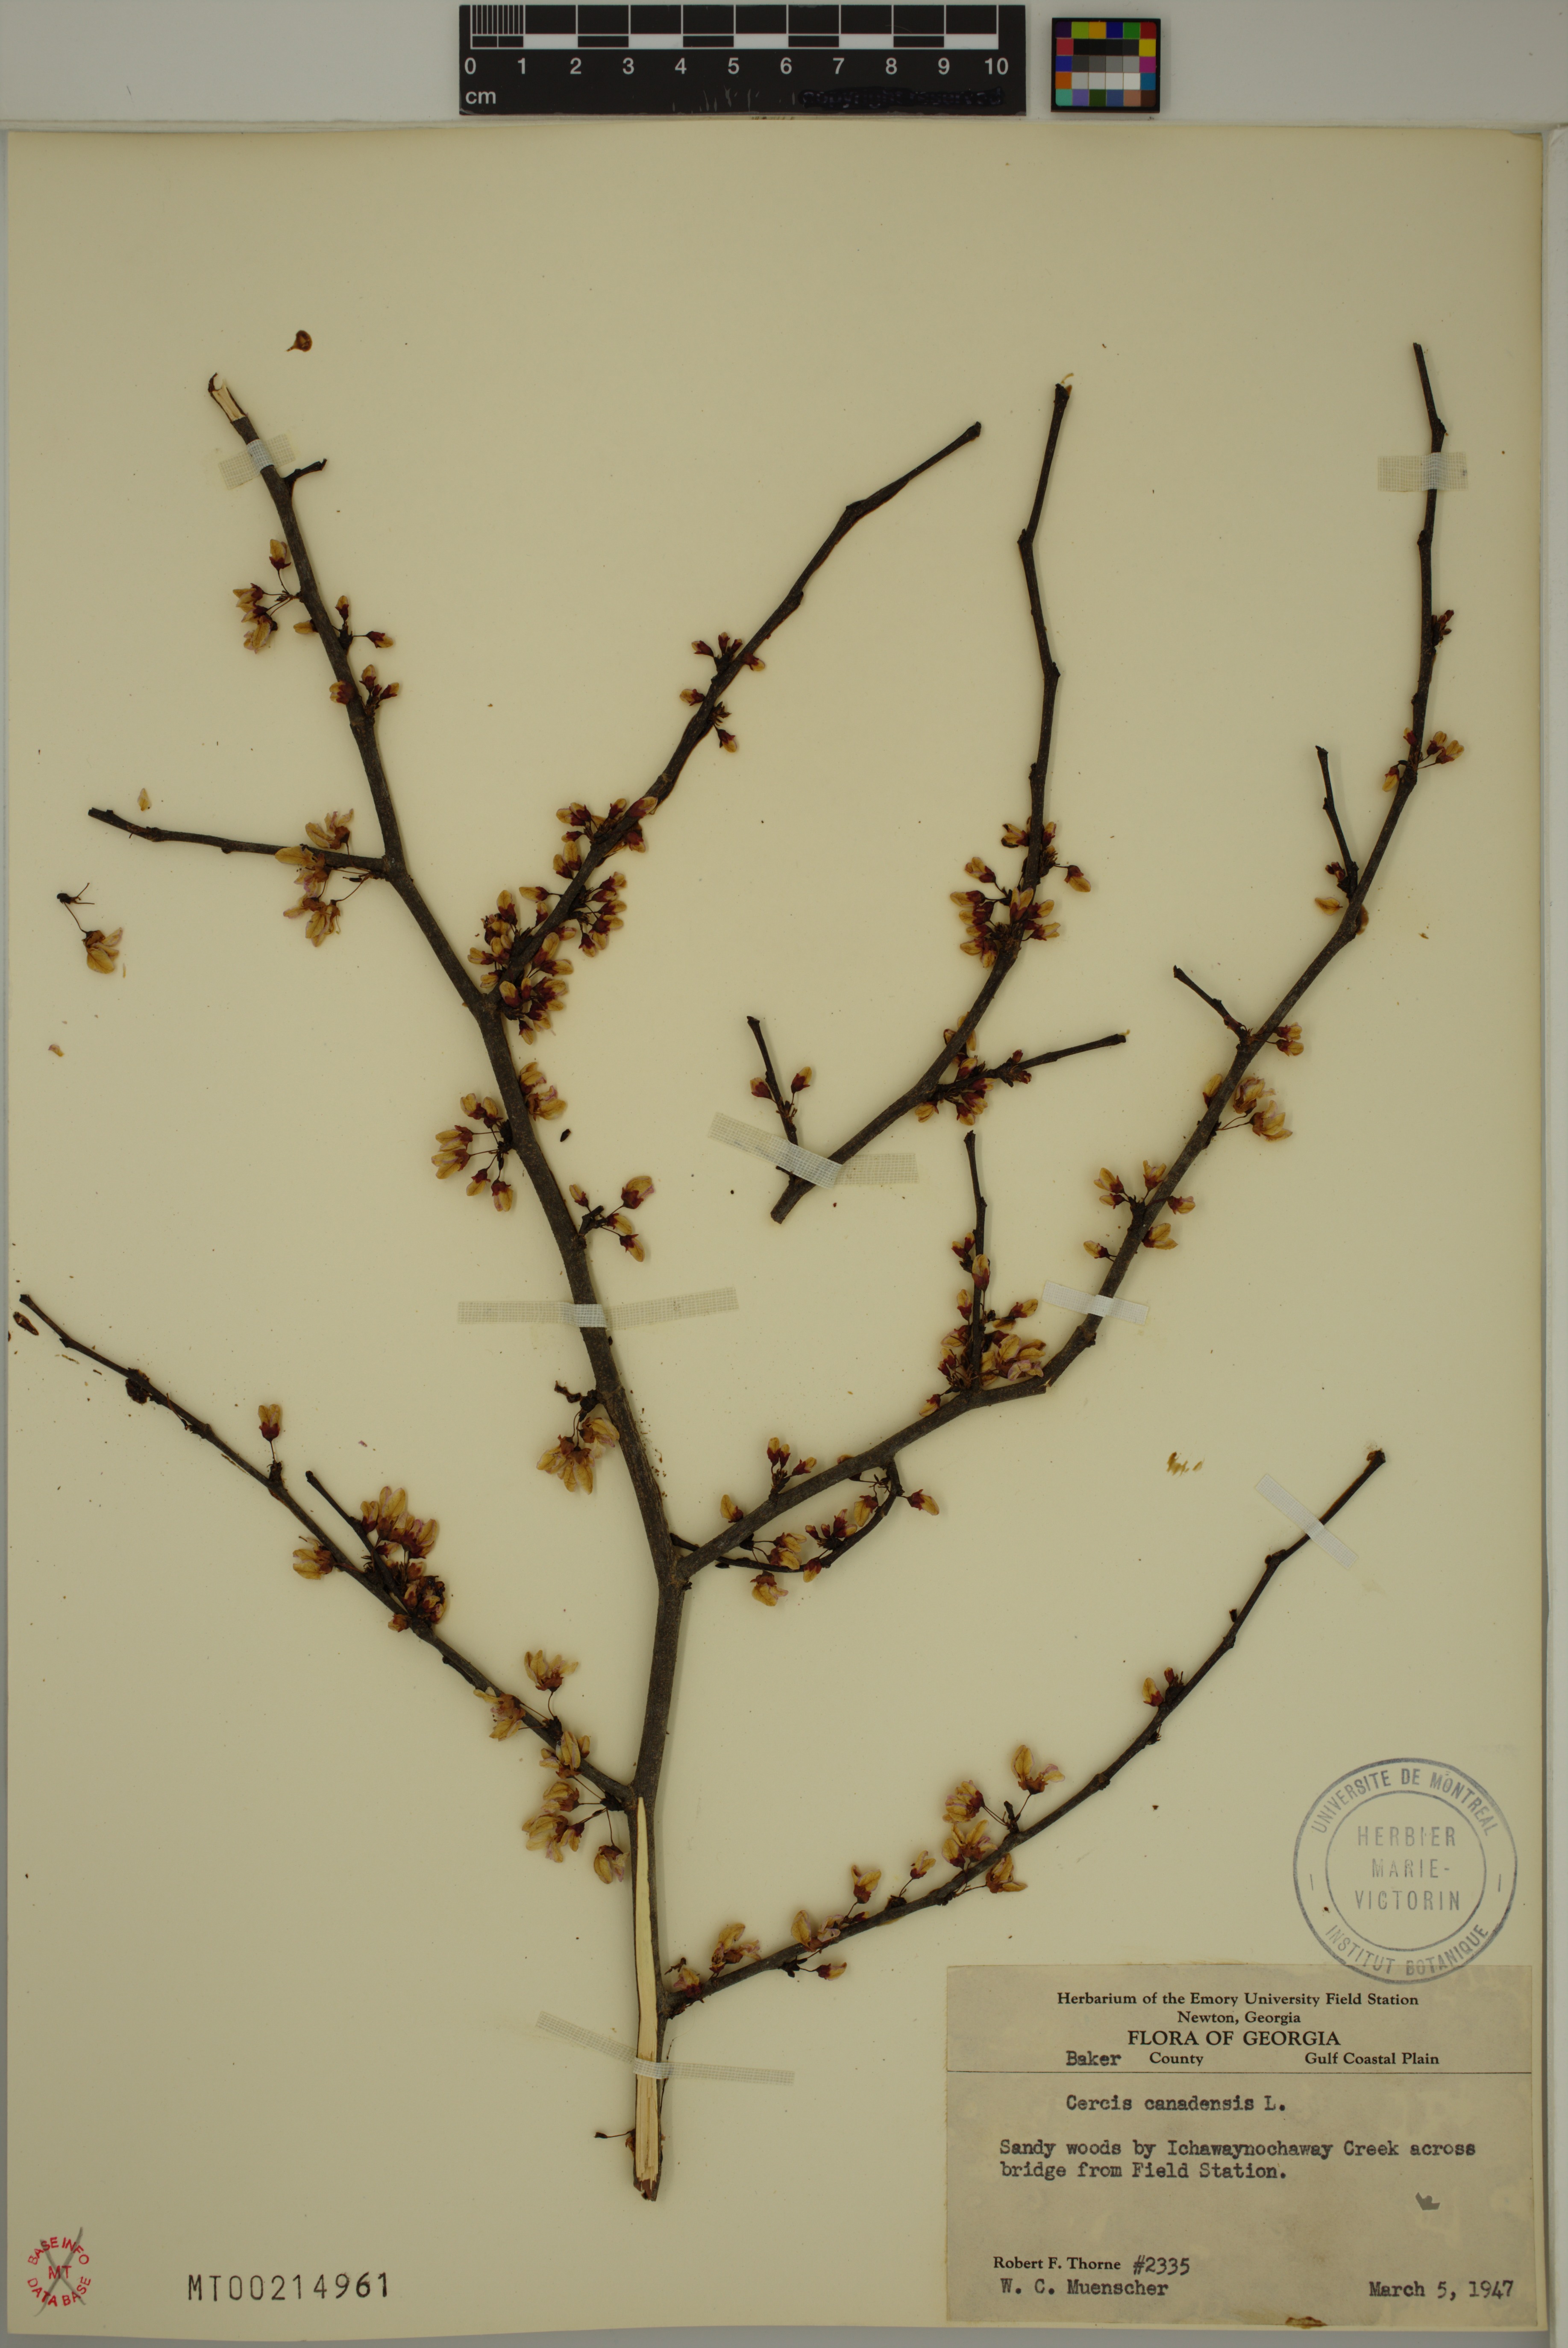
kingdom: Plantae
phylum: Tracheophyta
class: Magnoliopsida
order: Fabales
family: Fabaceae
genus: Cercis
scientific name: Cercis canadensis
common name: Eastern redbud
